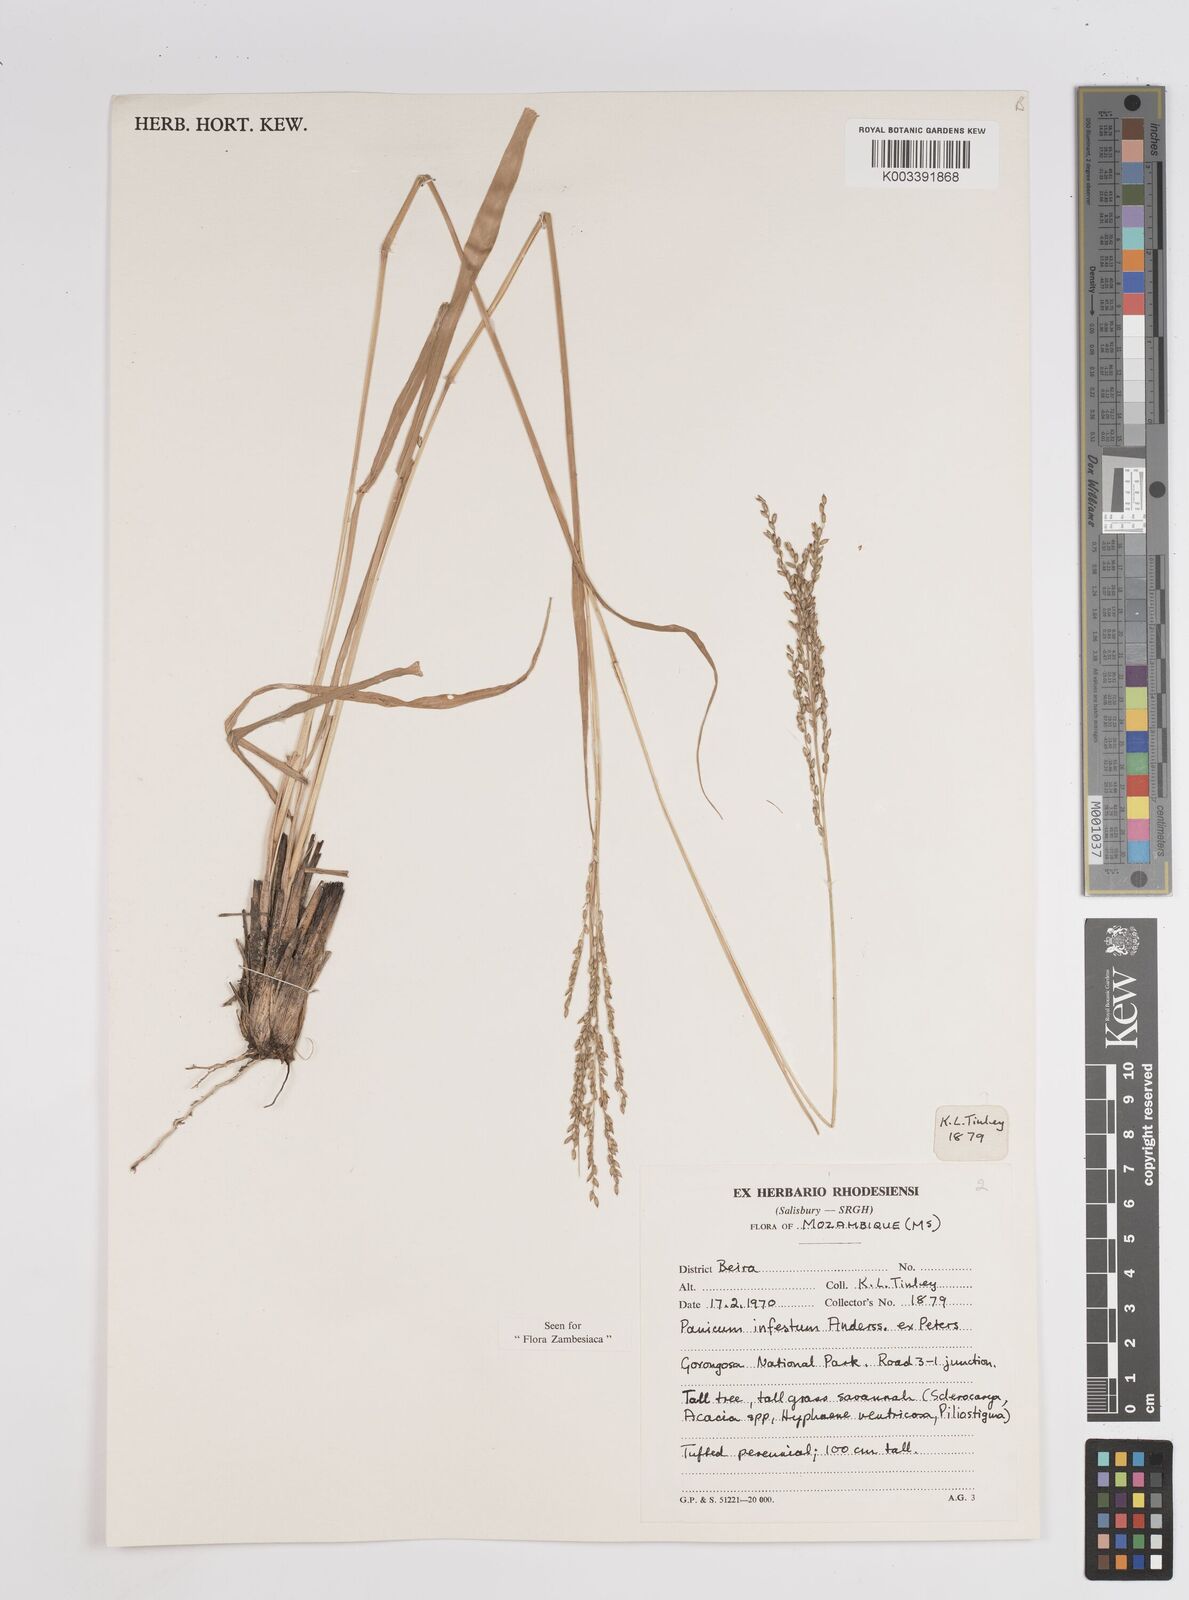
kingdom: Plantae
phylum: Tracheophyta
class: Liliopsida
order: Poales
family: Poaceae
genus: Megathyrsus
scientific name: Megathyrsus infestus
